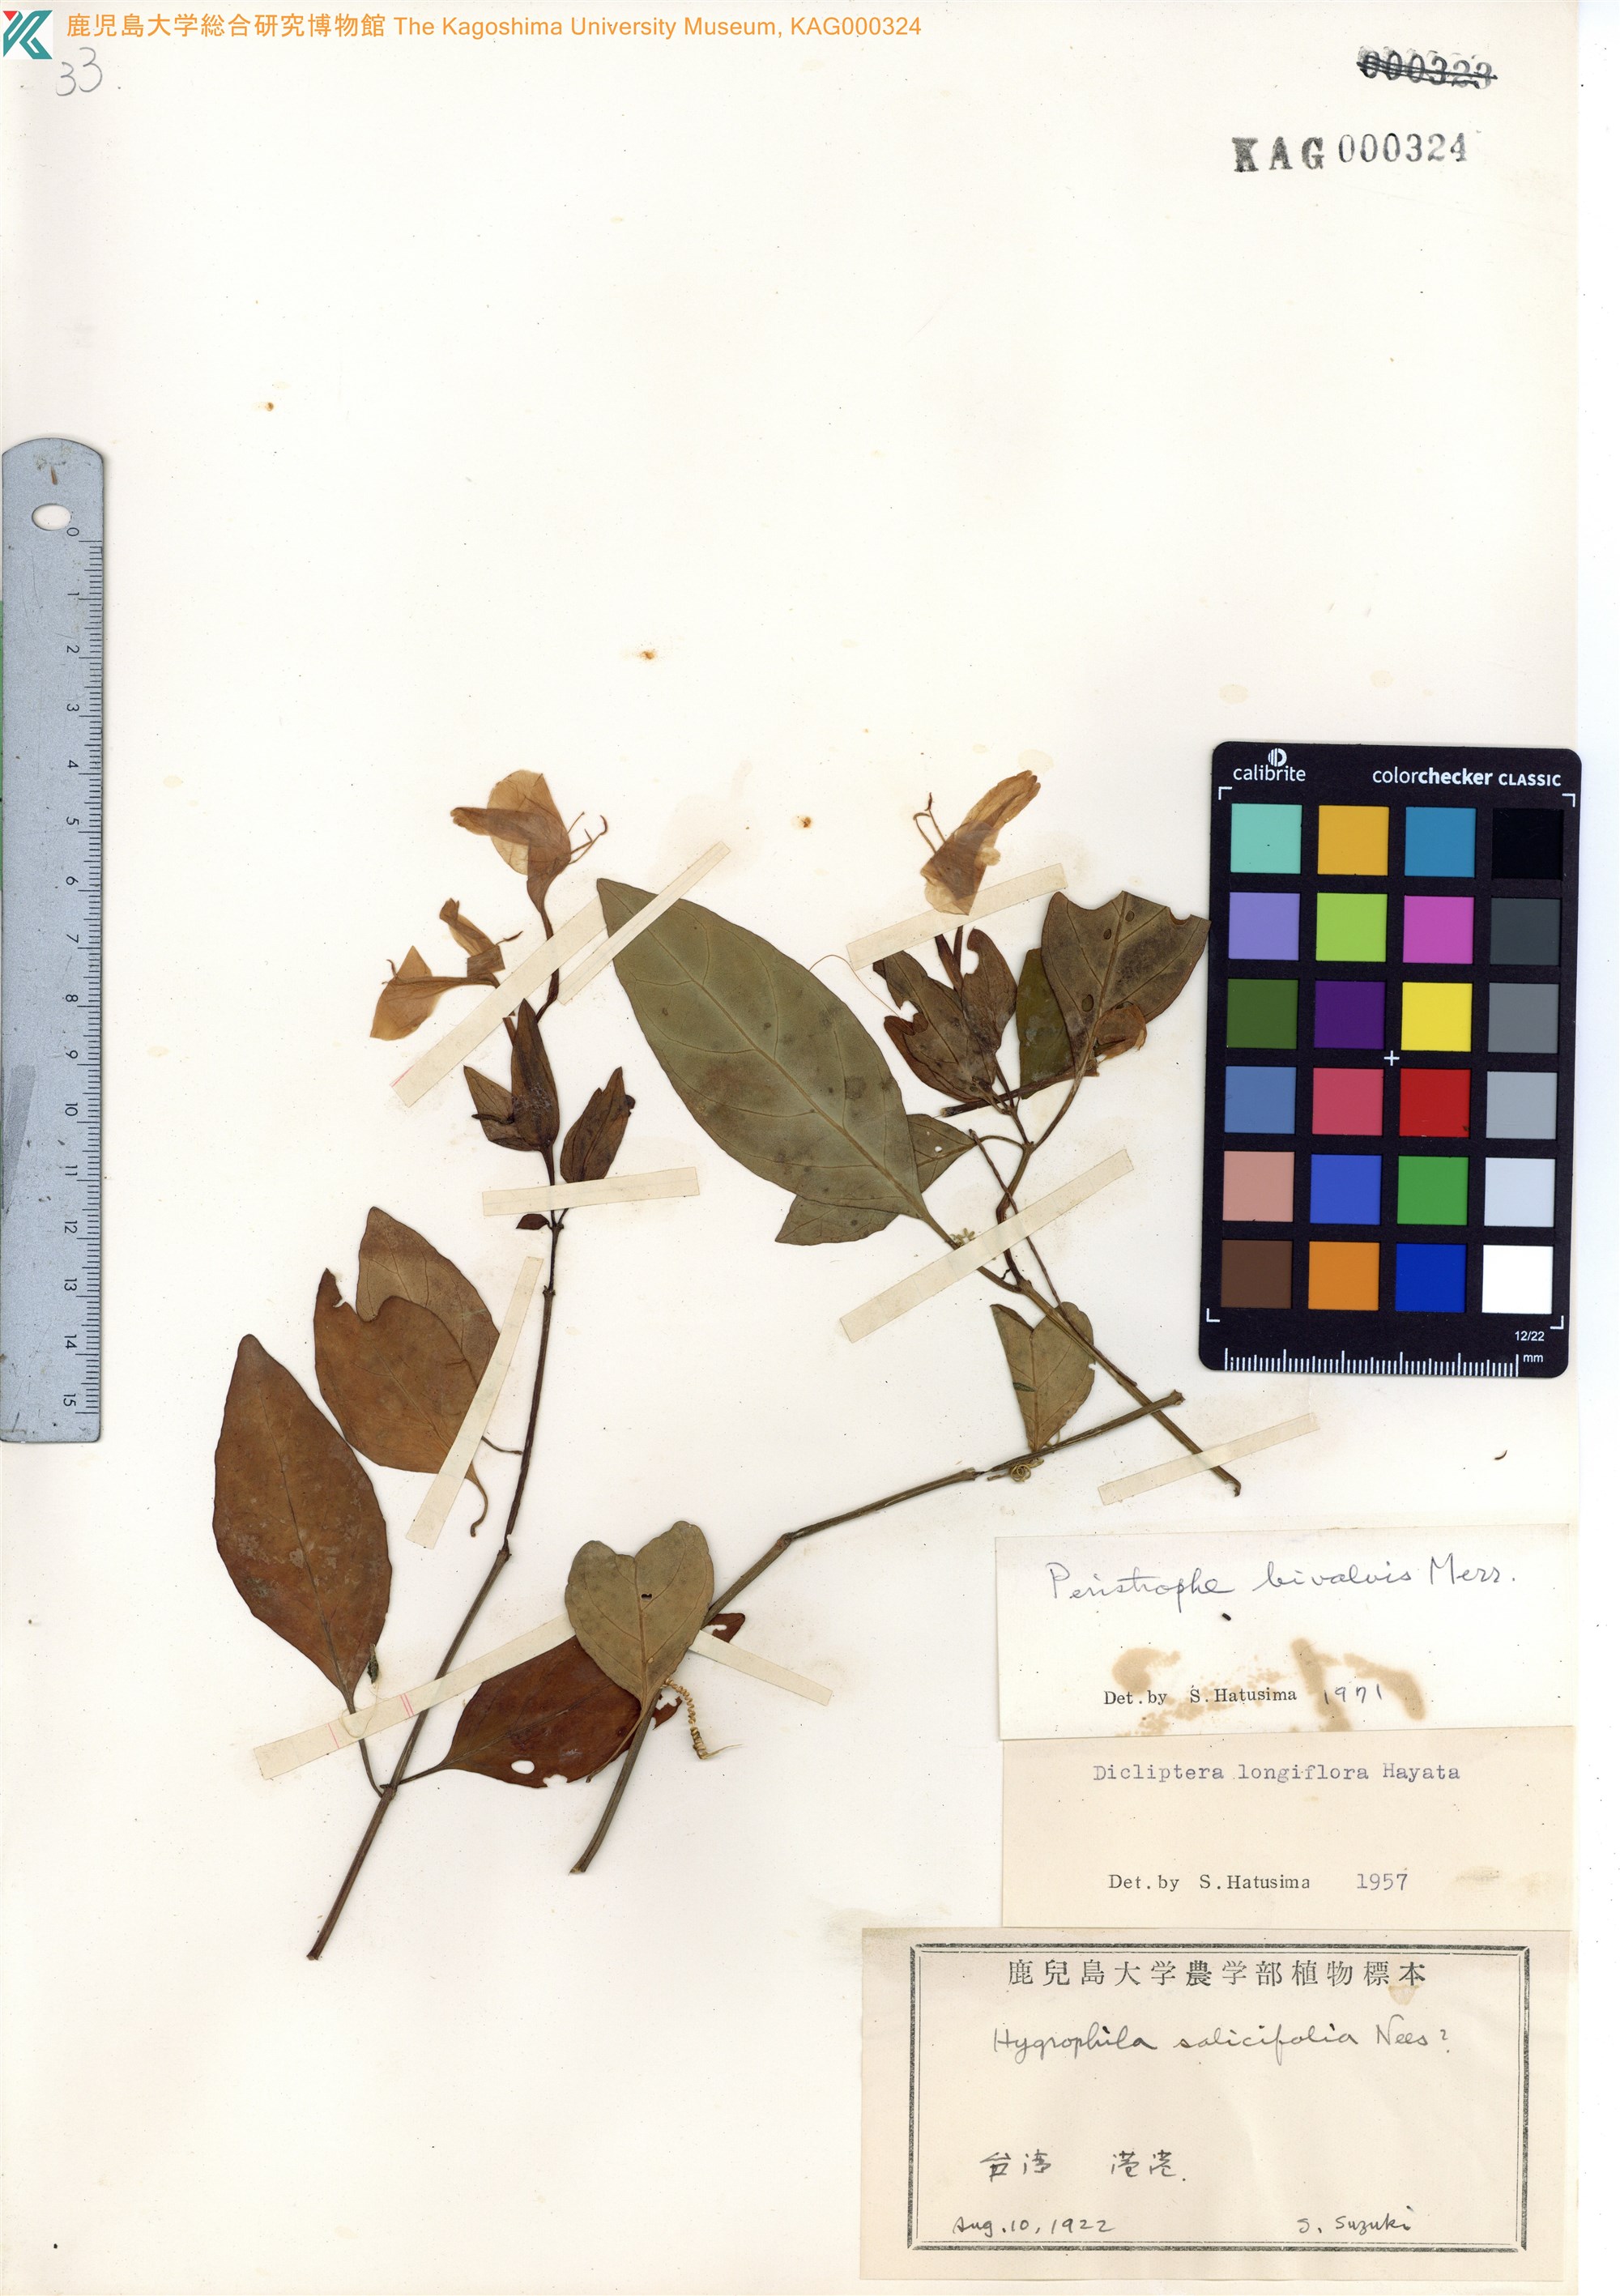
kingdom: Plantae
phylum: Tracheophyta
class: Magnoliopsida
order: Lamiales
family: Acanthaceae
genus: Dicliptera
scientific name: Dicliptera tinctoria
